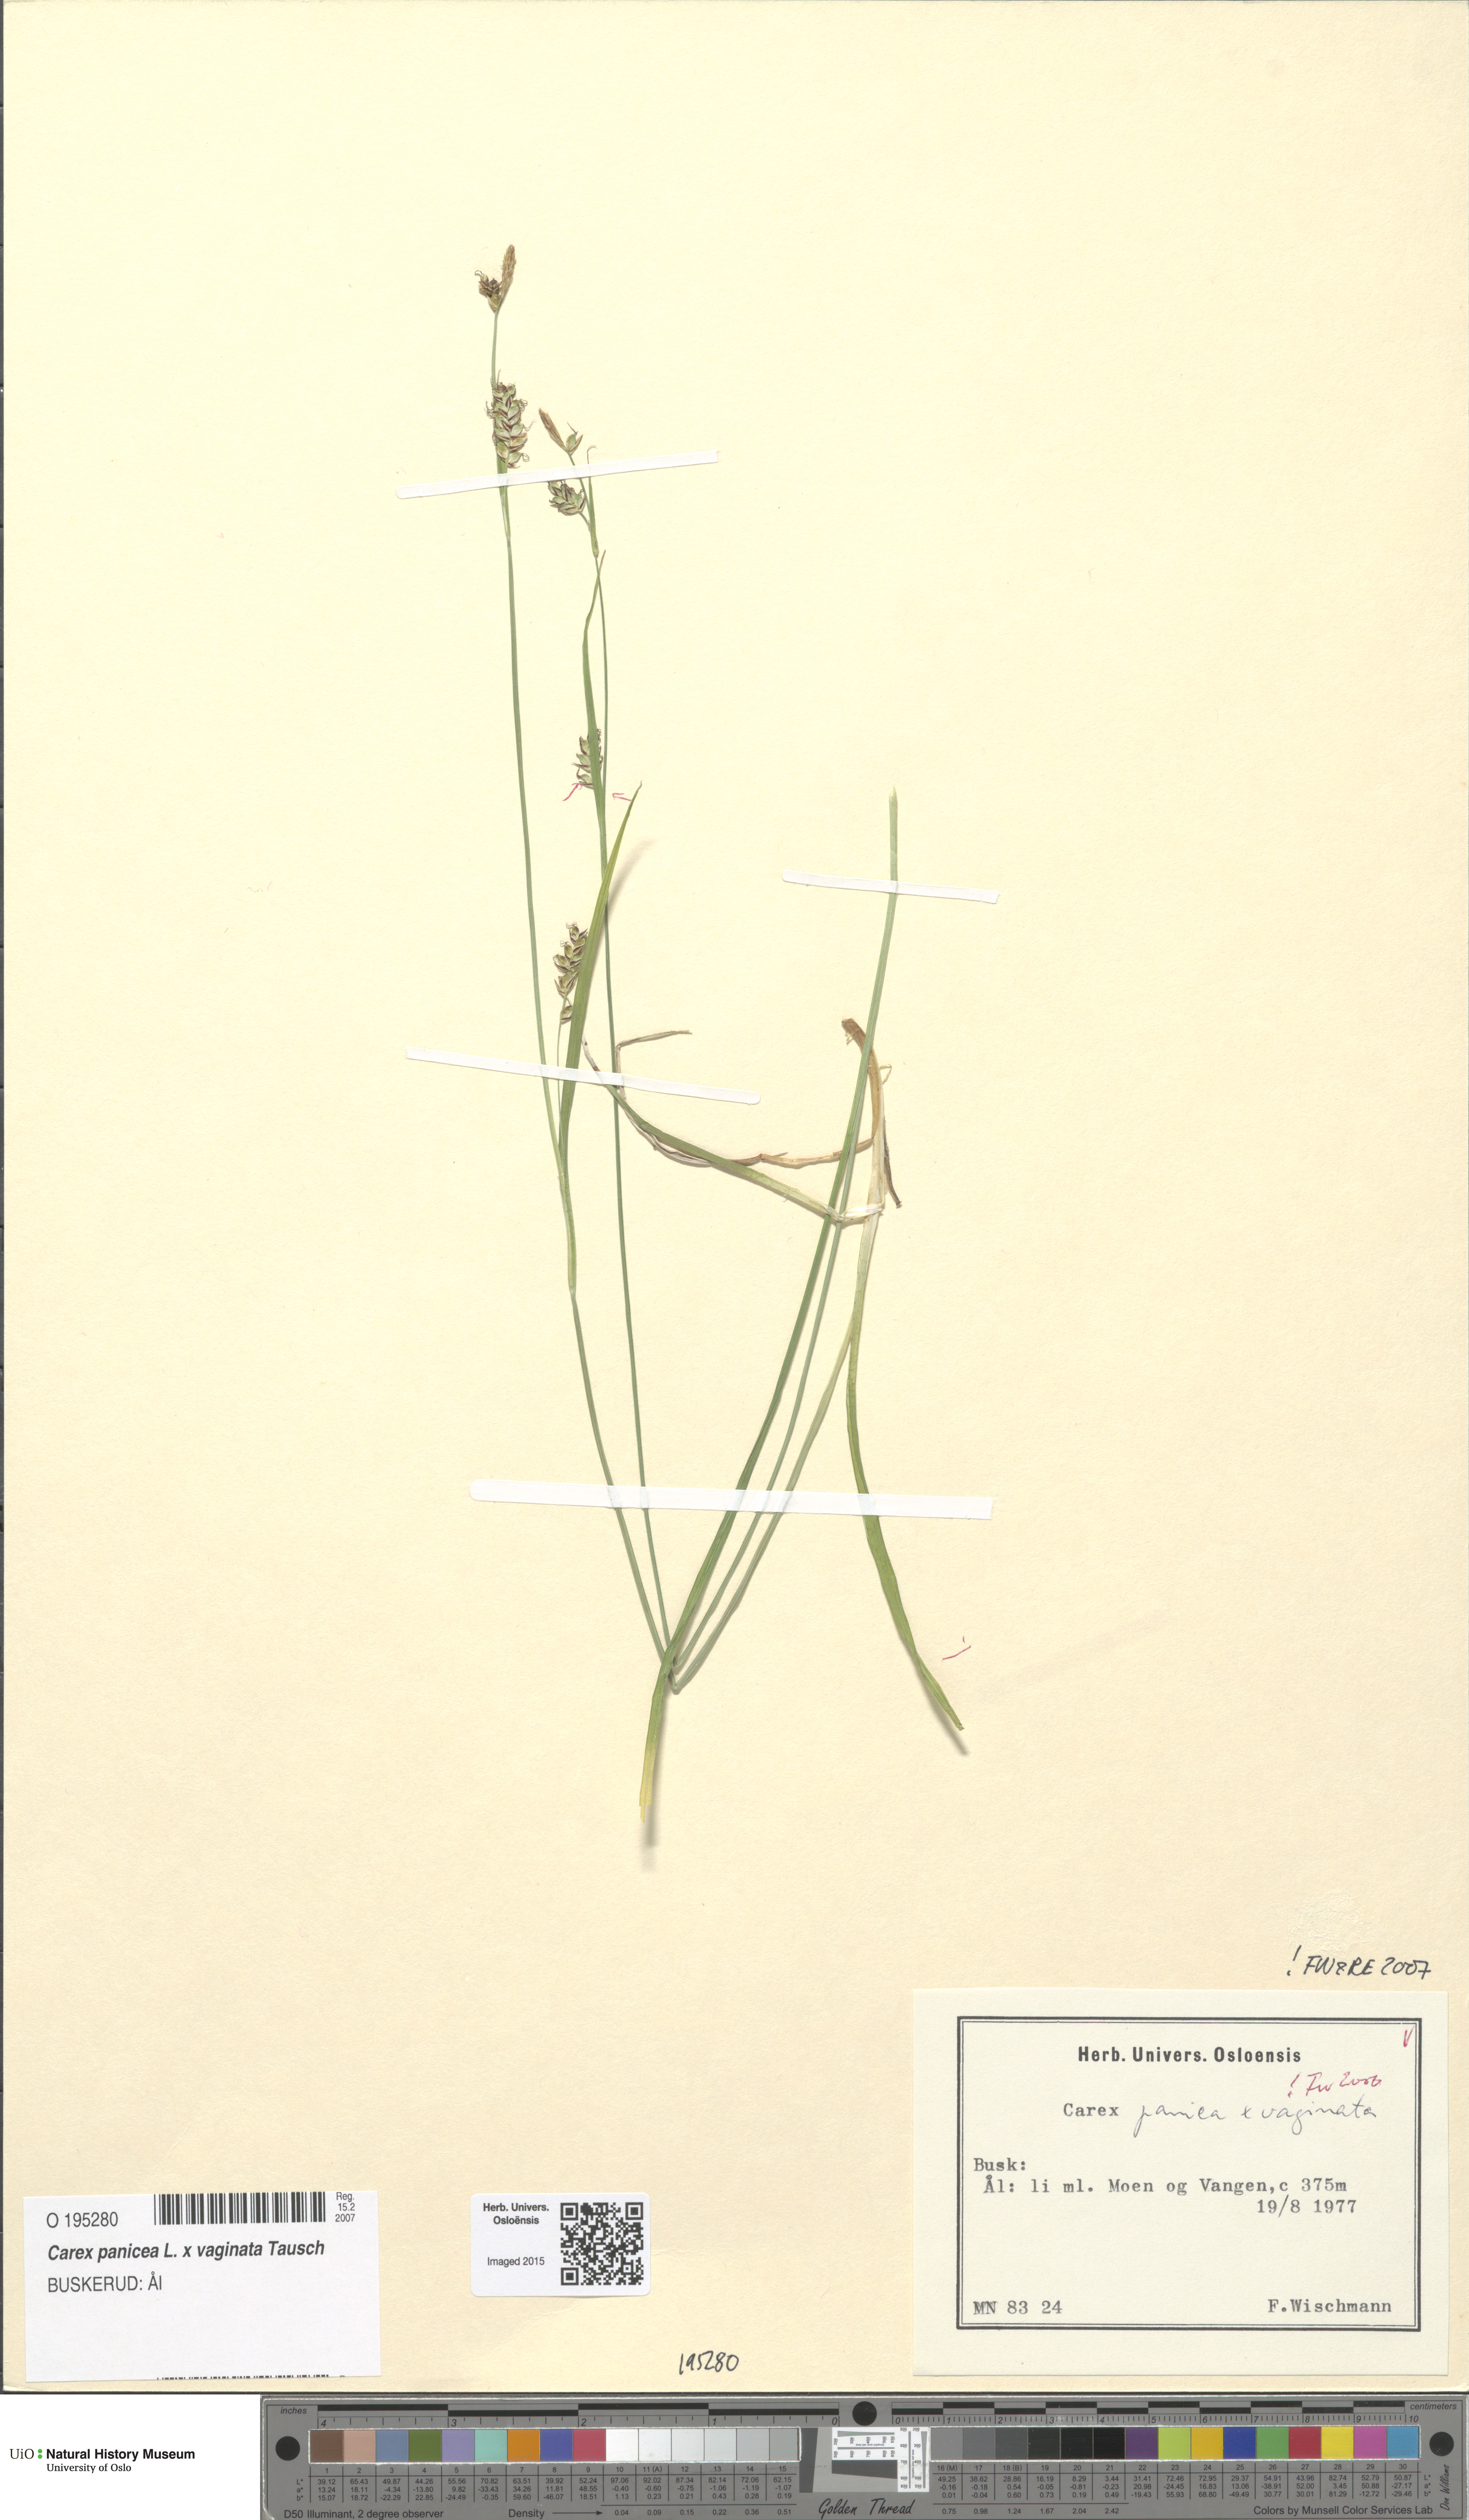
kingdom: Plantae
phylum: Tracheophyta
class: Liliopsida
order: Poales
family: Cyperaceae
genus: Carex
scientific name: Carex
